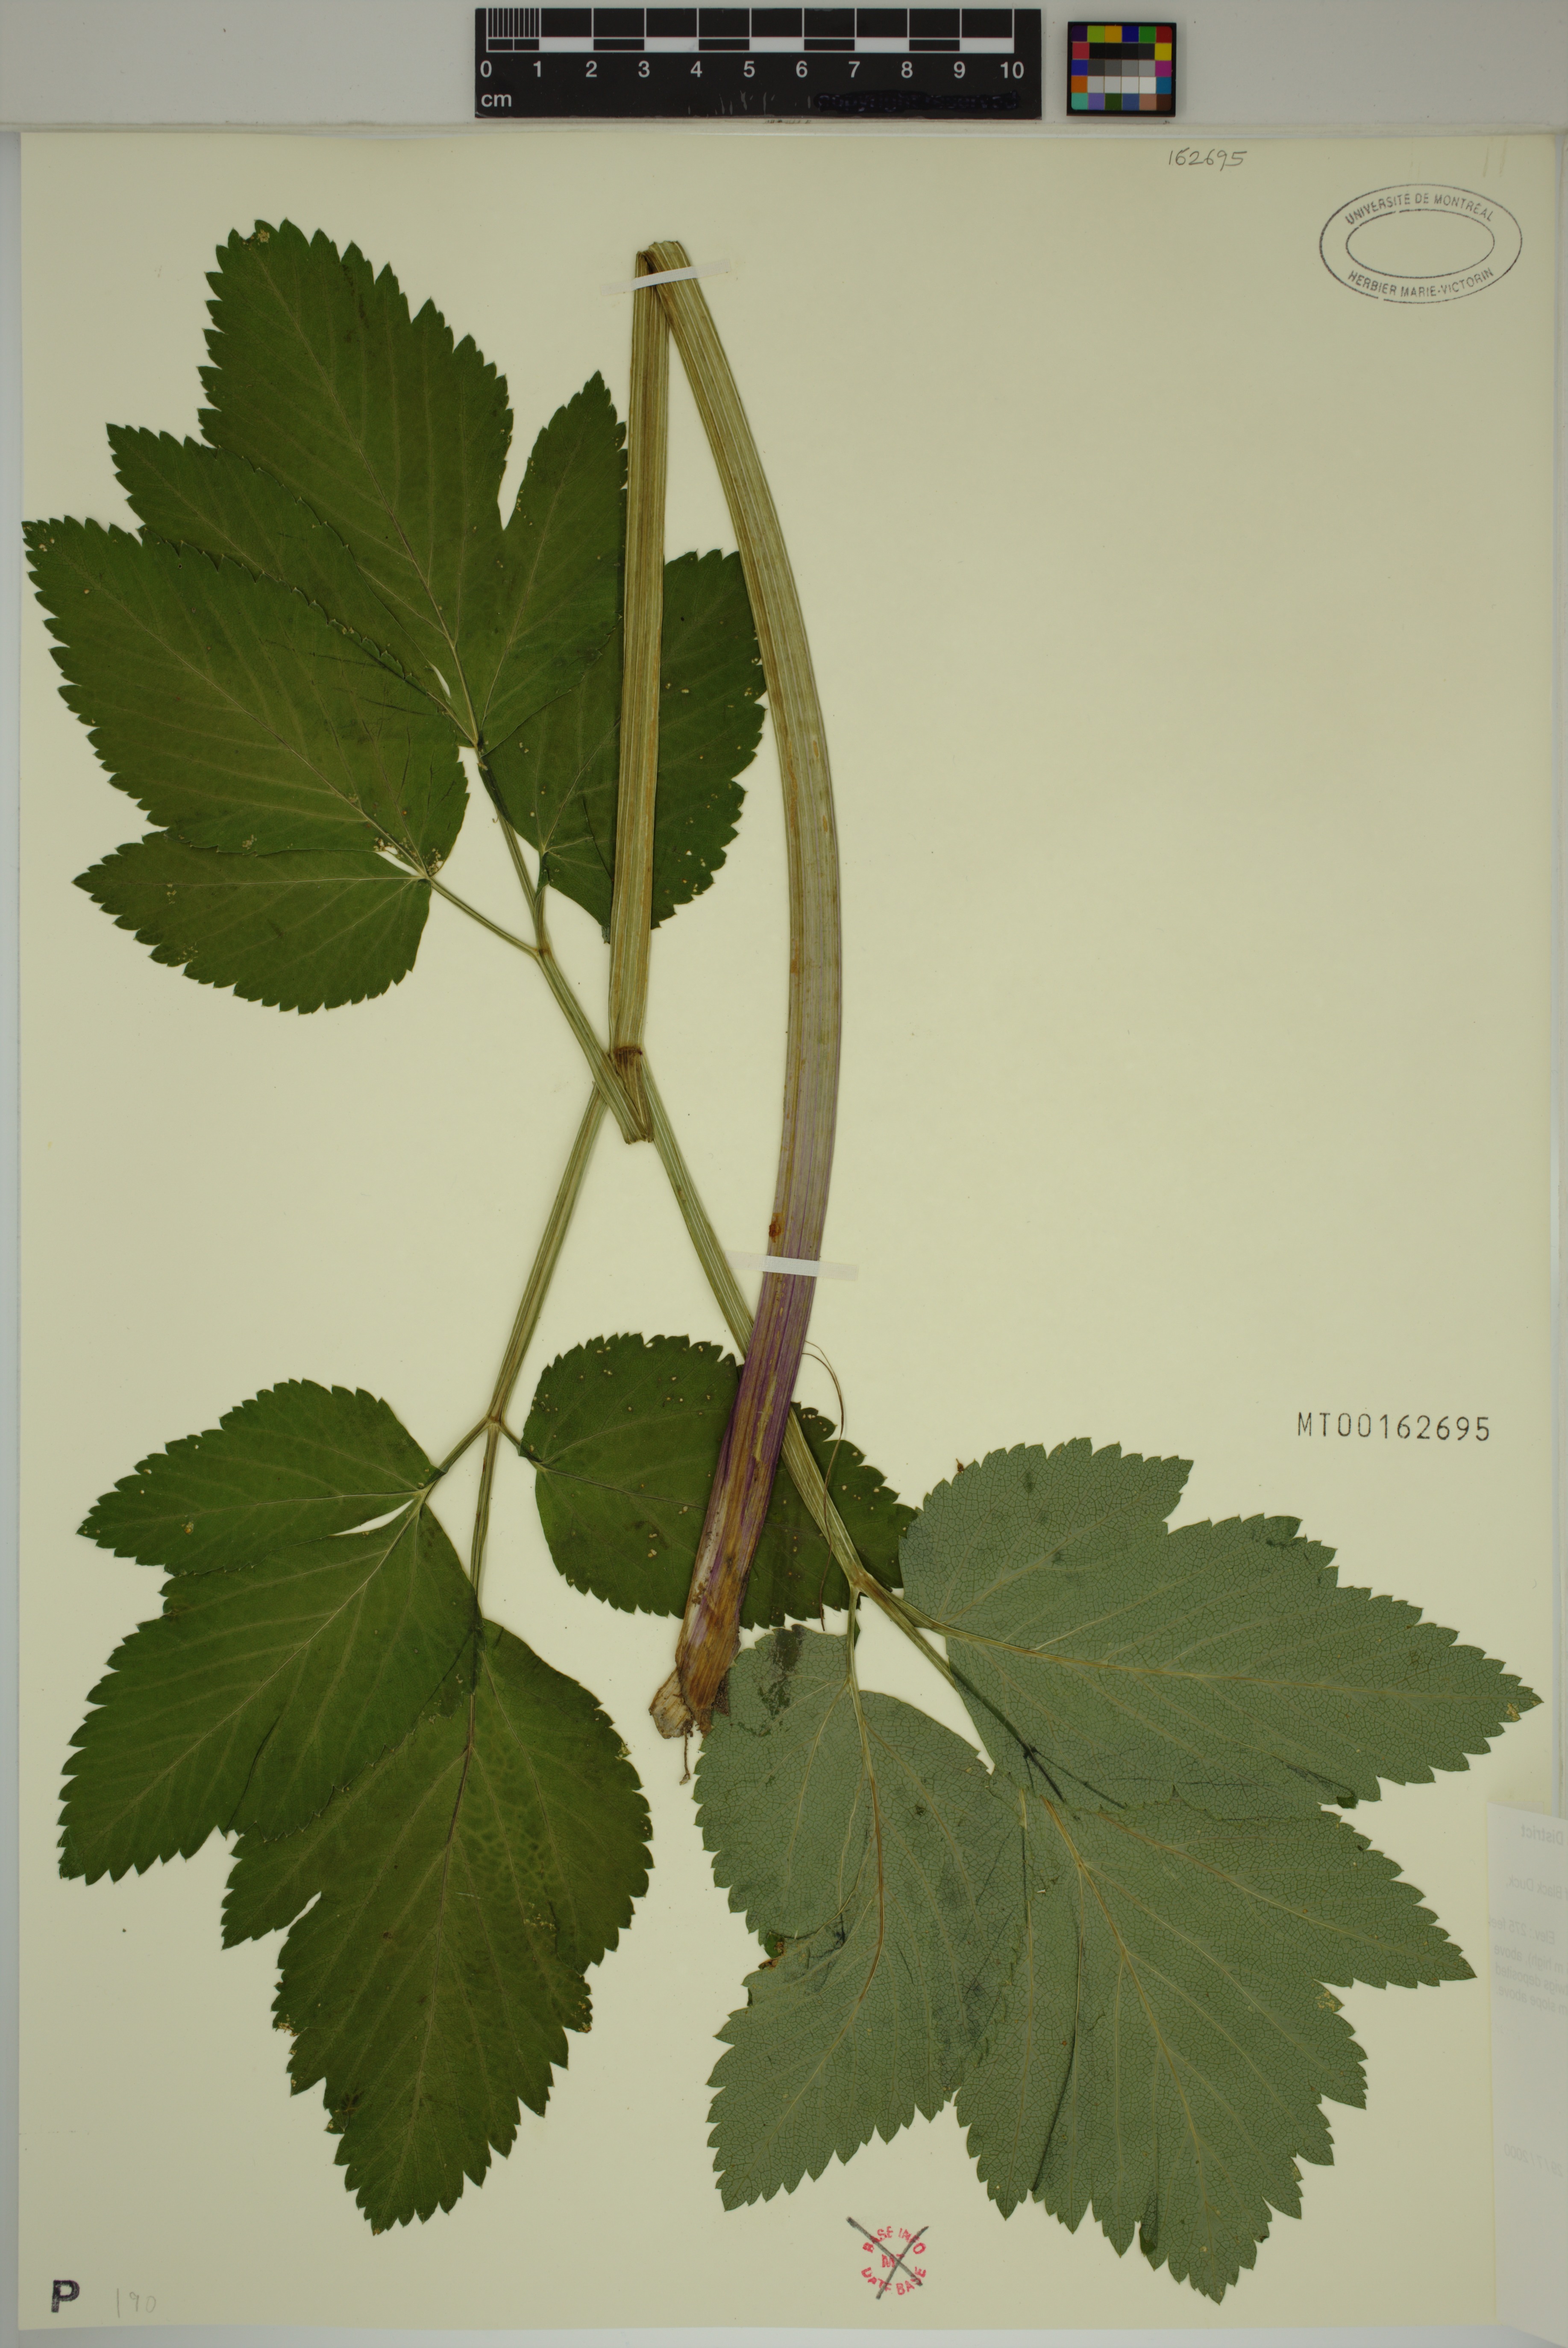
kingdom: Plantae
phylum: Tracheophyta
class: Magnoliopsida
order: Apiales
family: Apiaceae
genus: Angelica
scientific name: Angelica atropurpurea
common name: Great angelica
